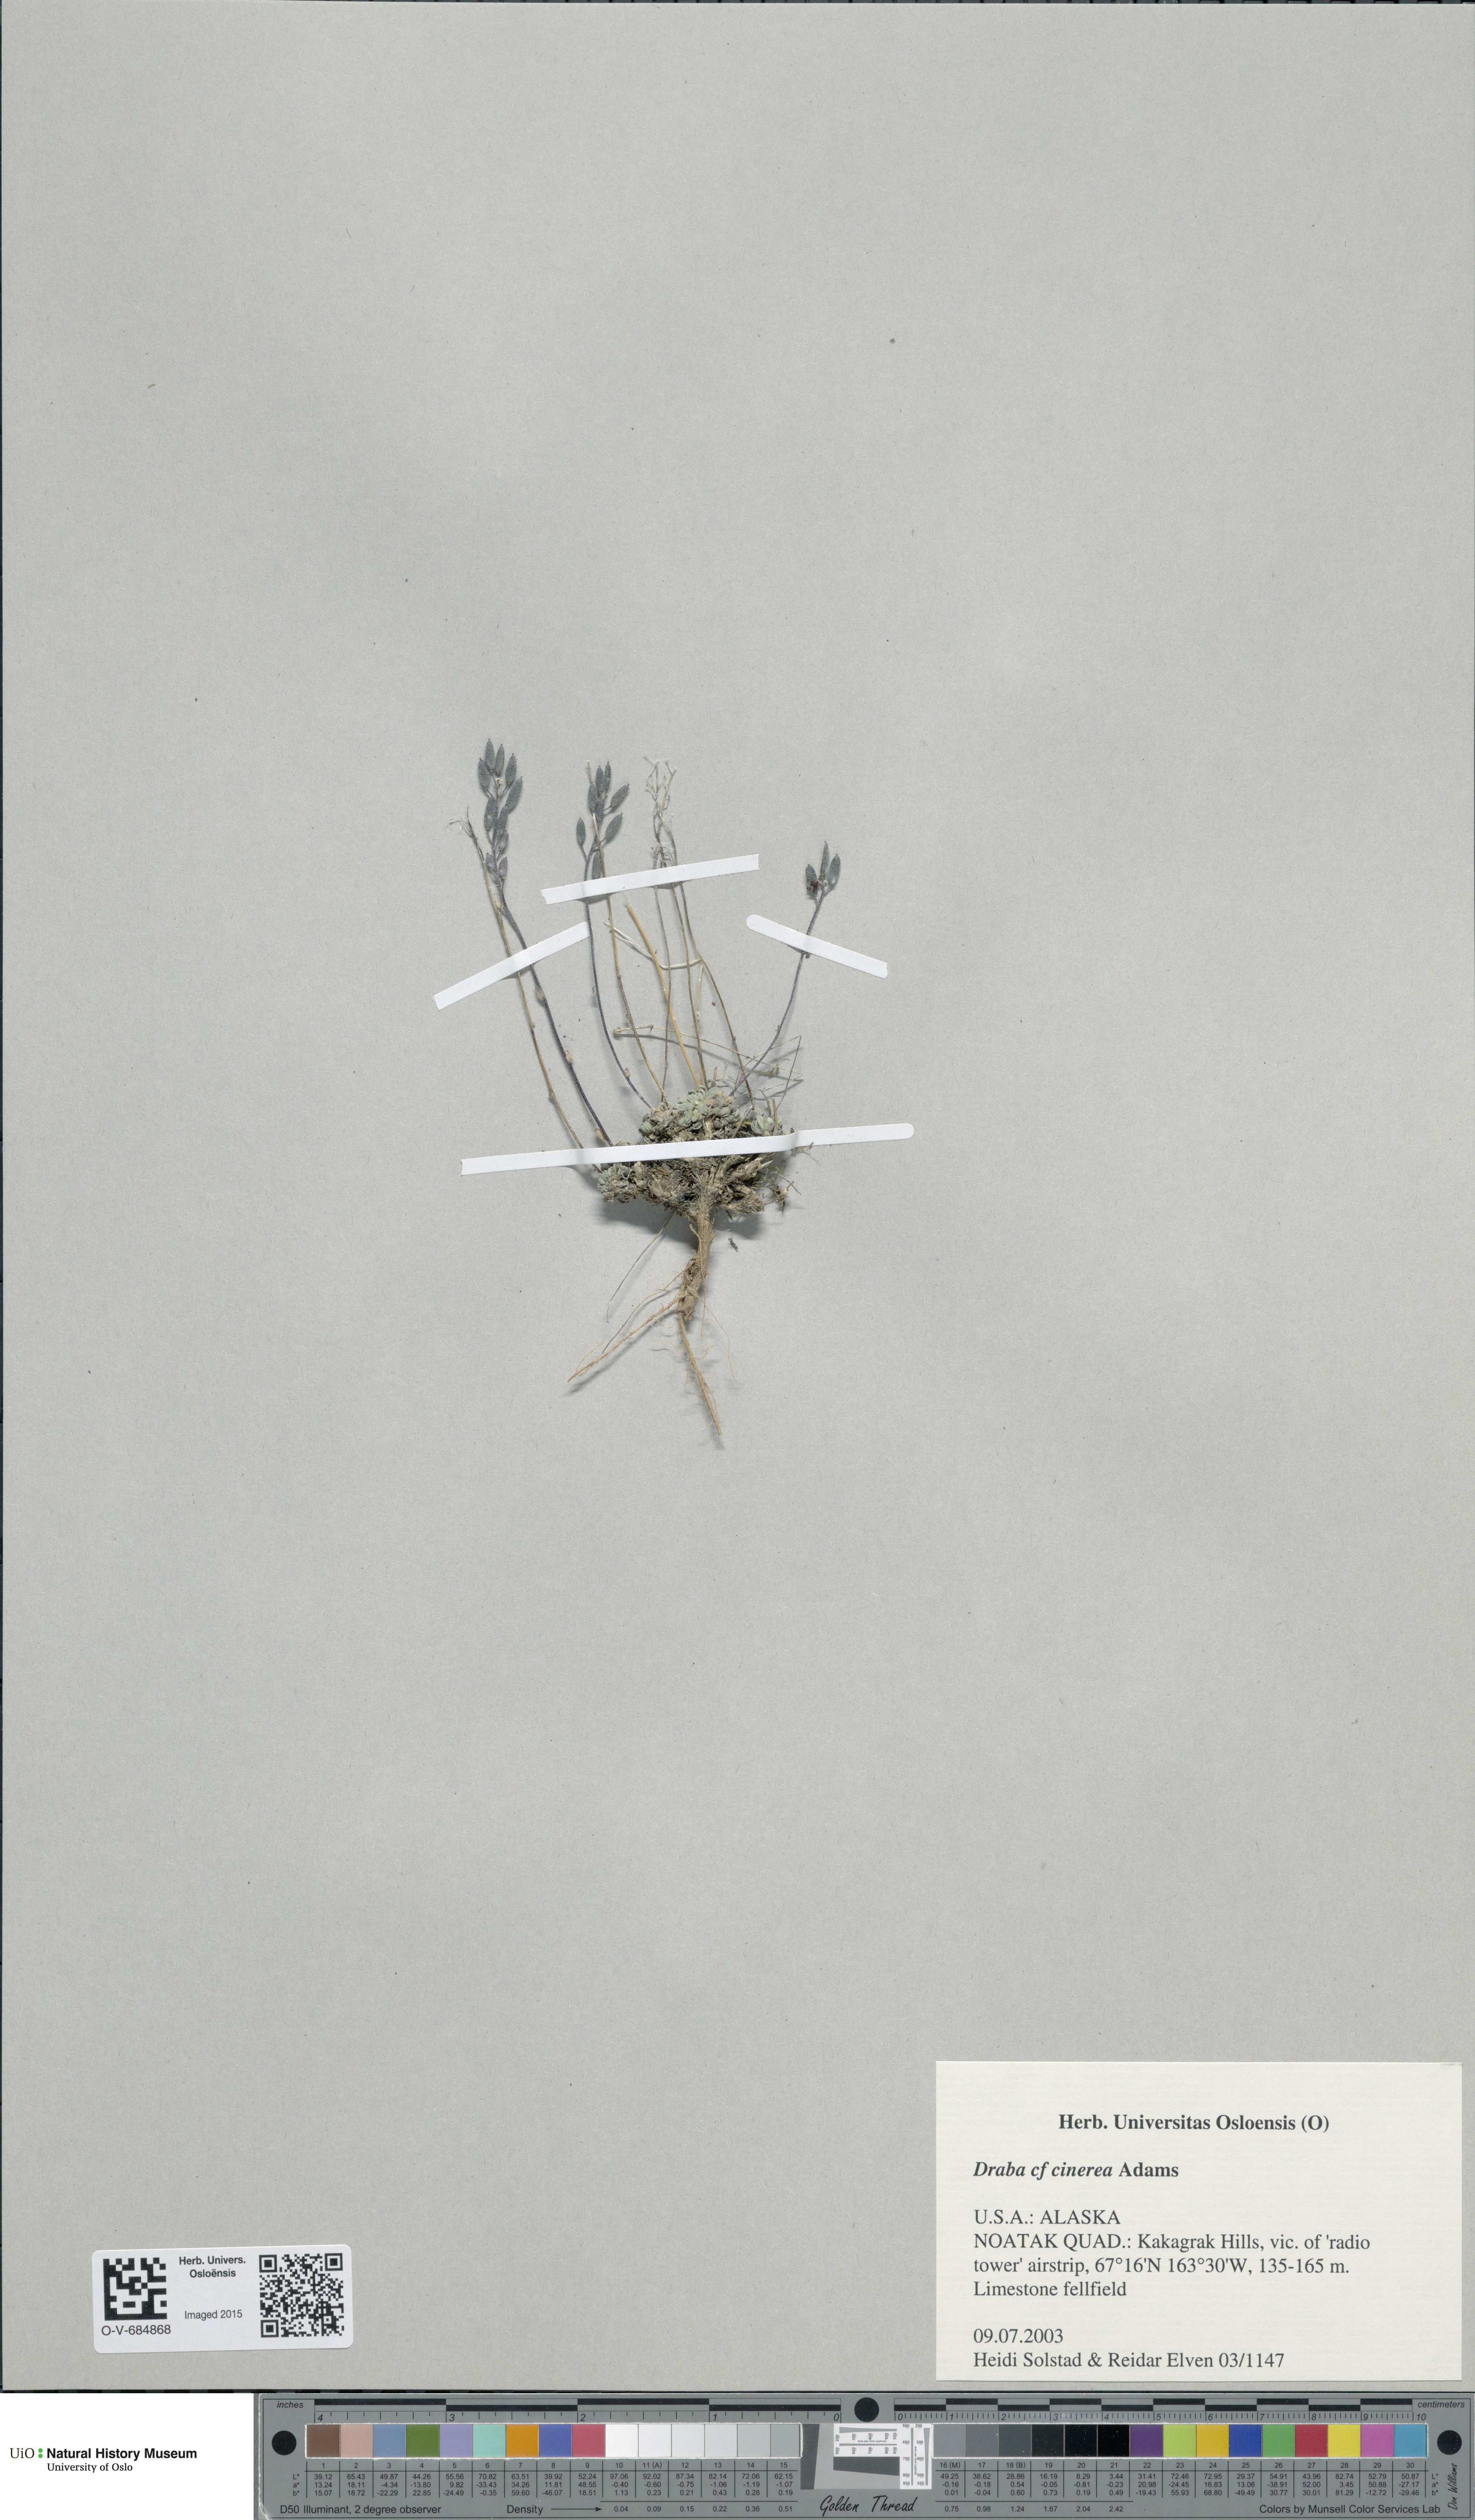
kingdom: Plantae
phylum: Tracheophyta
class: Magnoliopsida
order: Brassicales
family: Brassicaceae
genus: Draba
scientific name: Draba cinerea
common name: Ash-coloured whitlow-grass
